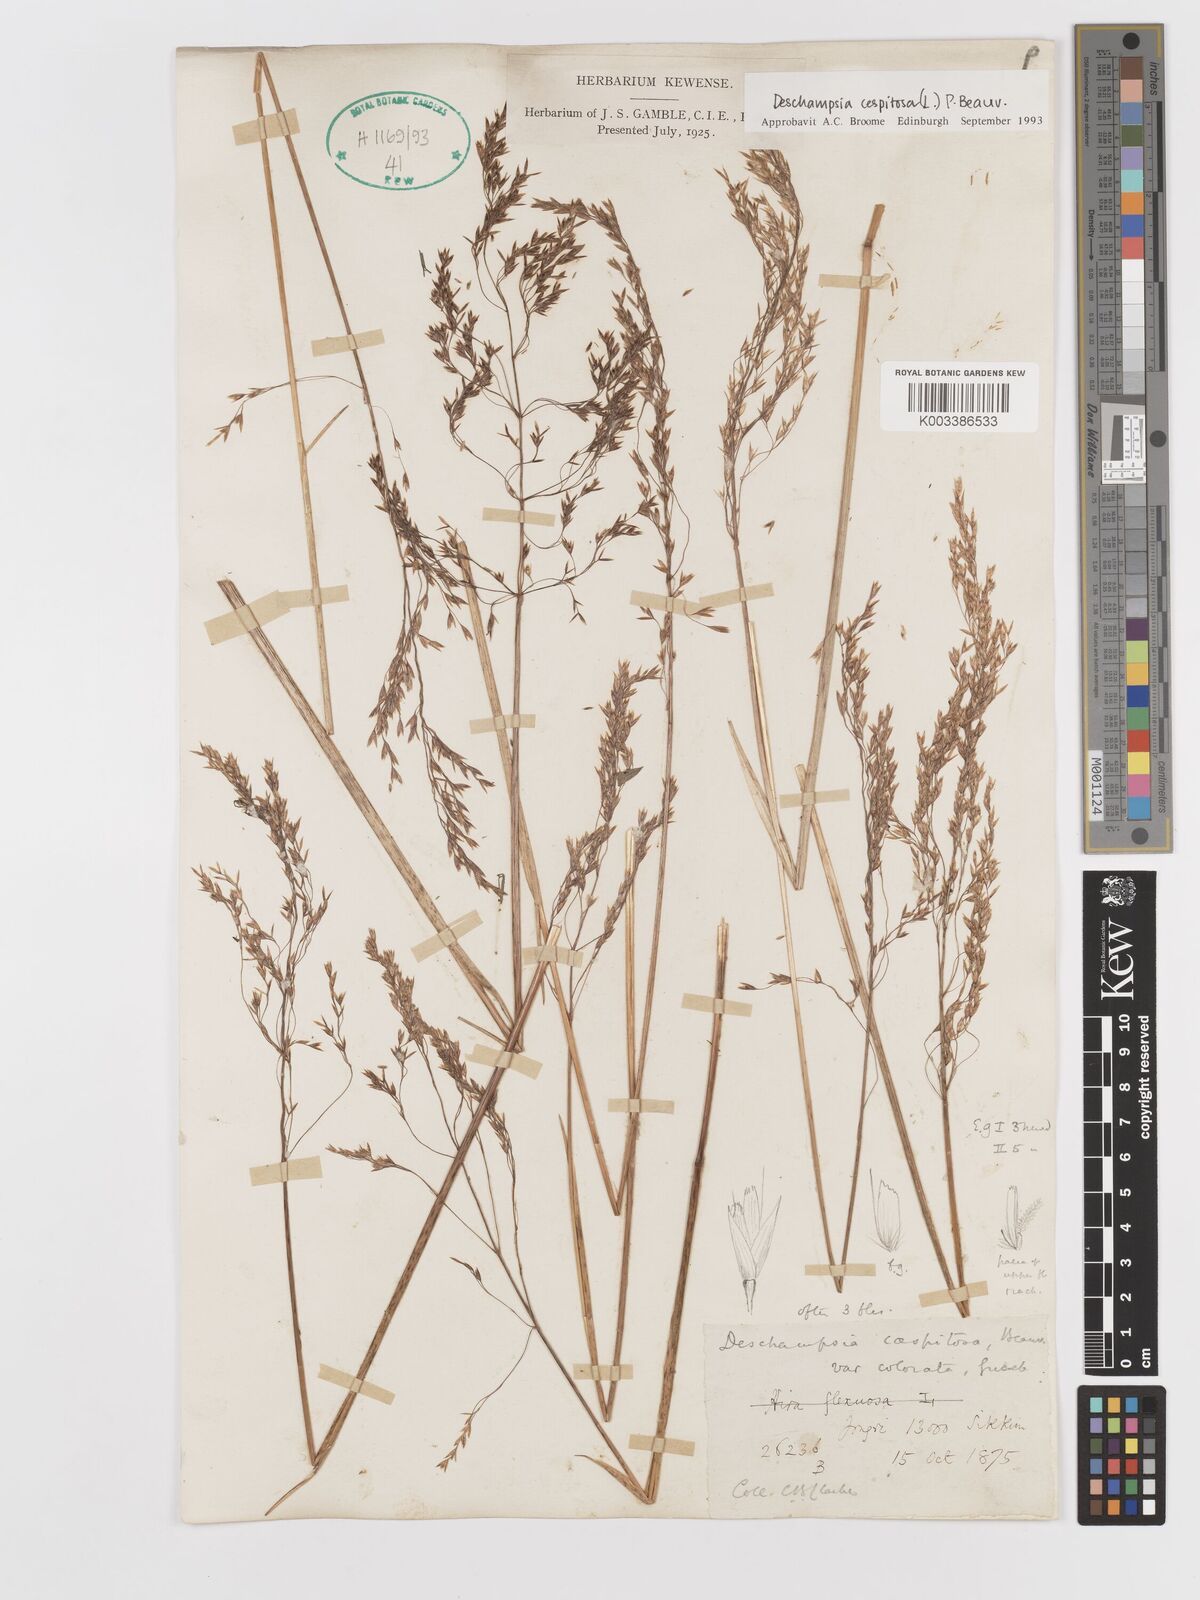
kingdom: Plantae
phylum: Tracheophyta
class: Liliopsida
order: Poales
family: Poaceae
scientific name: Poaceae
